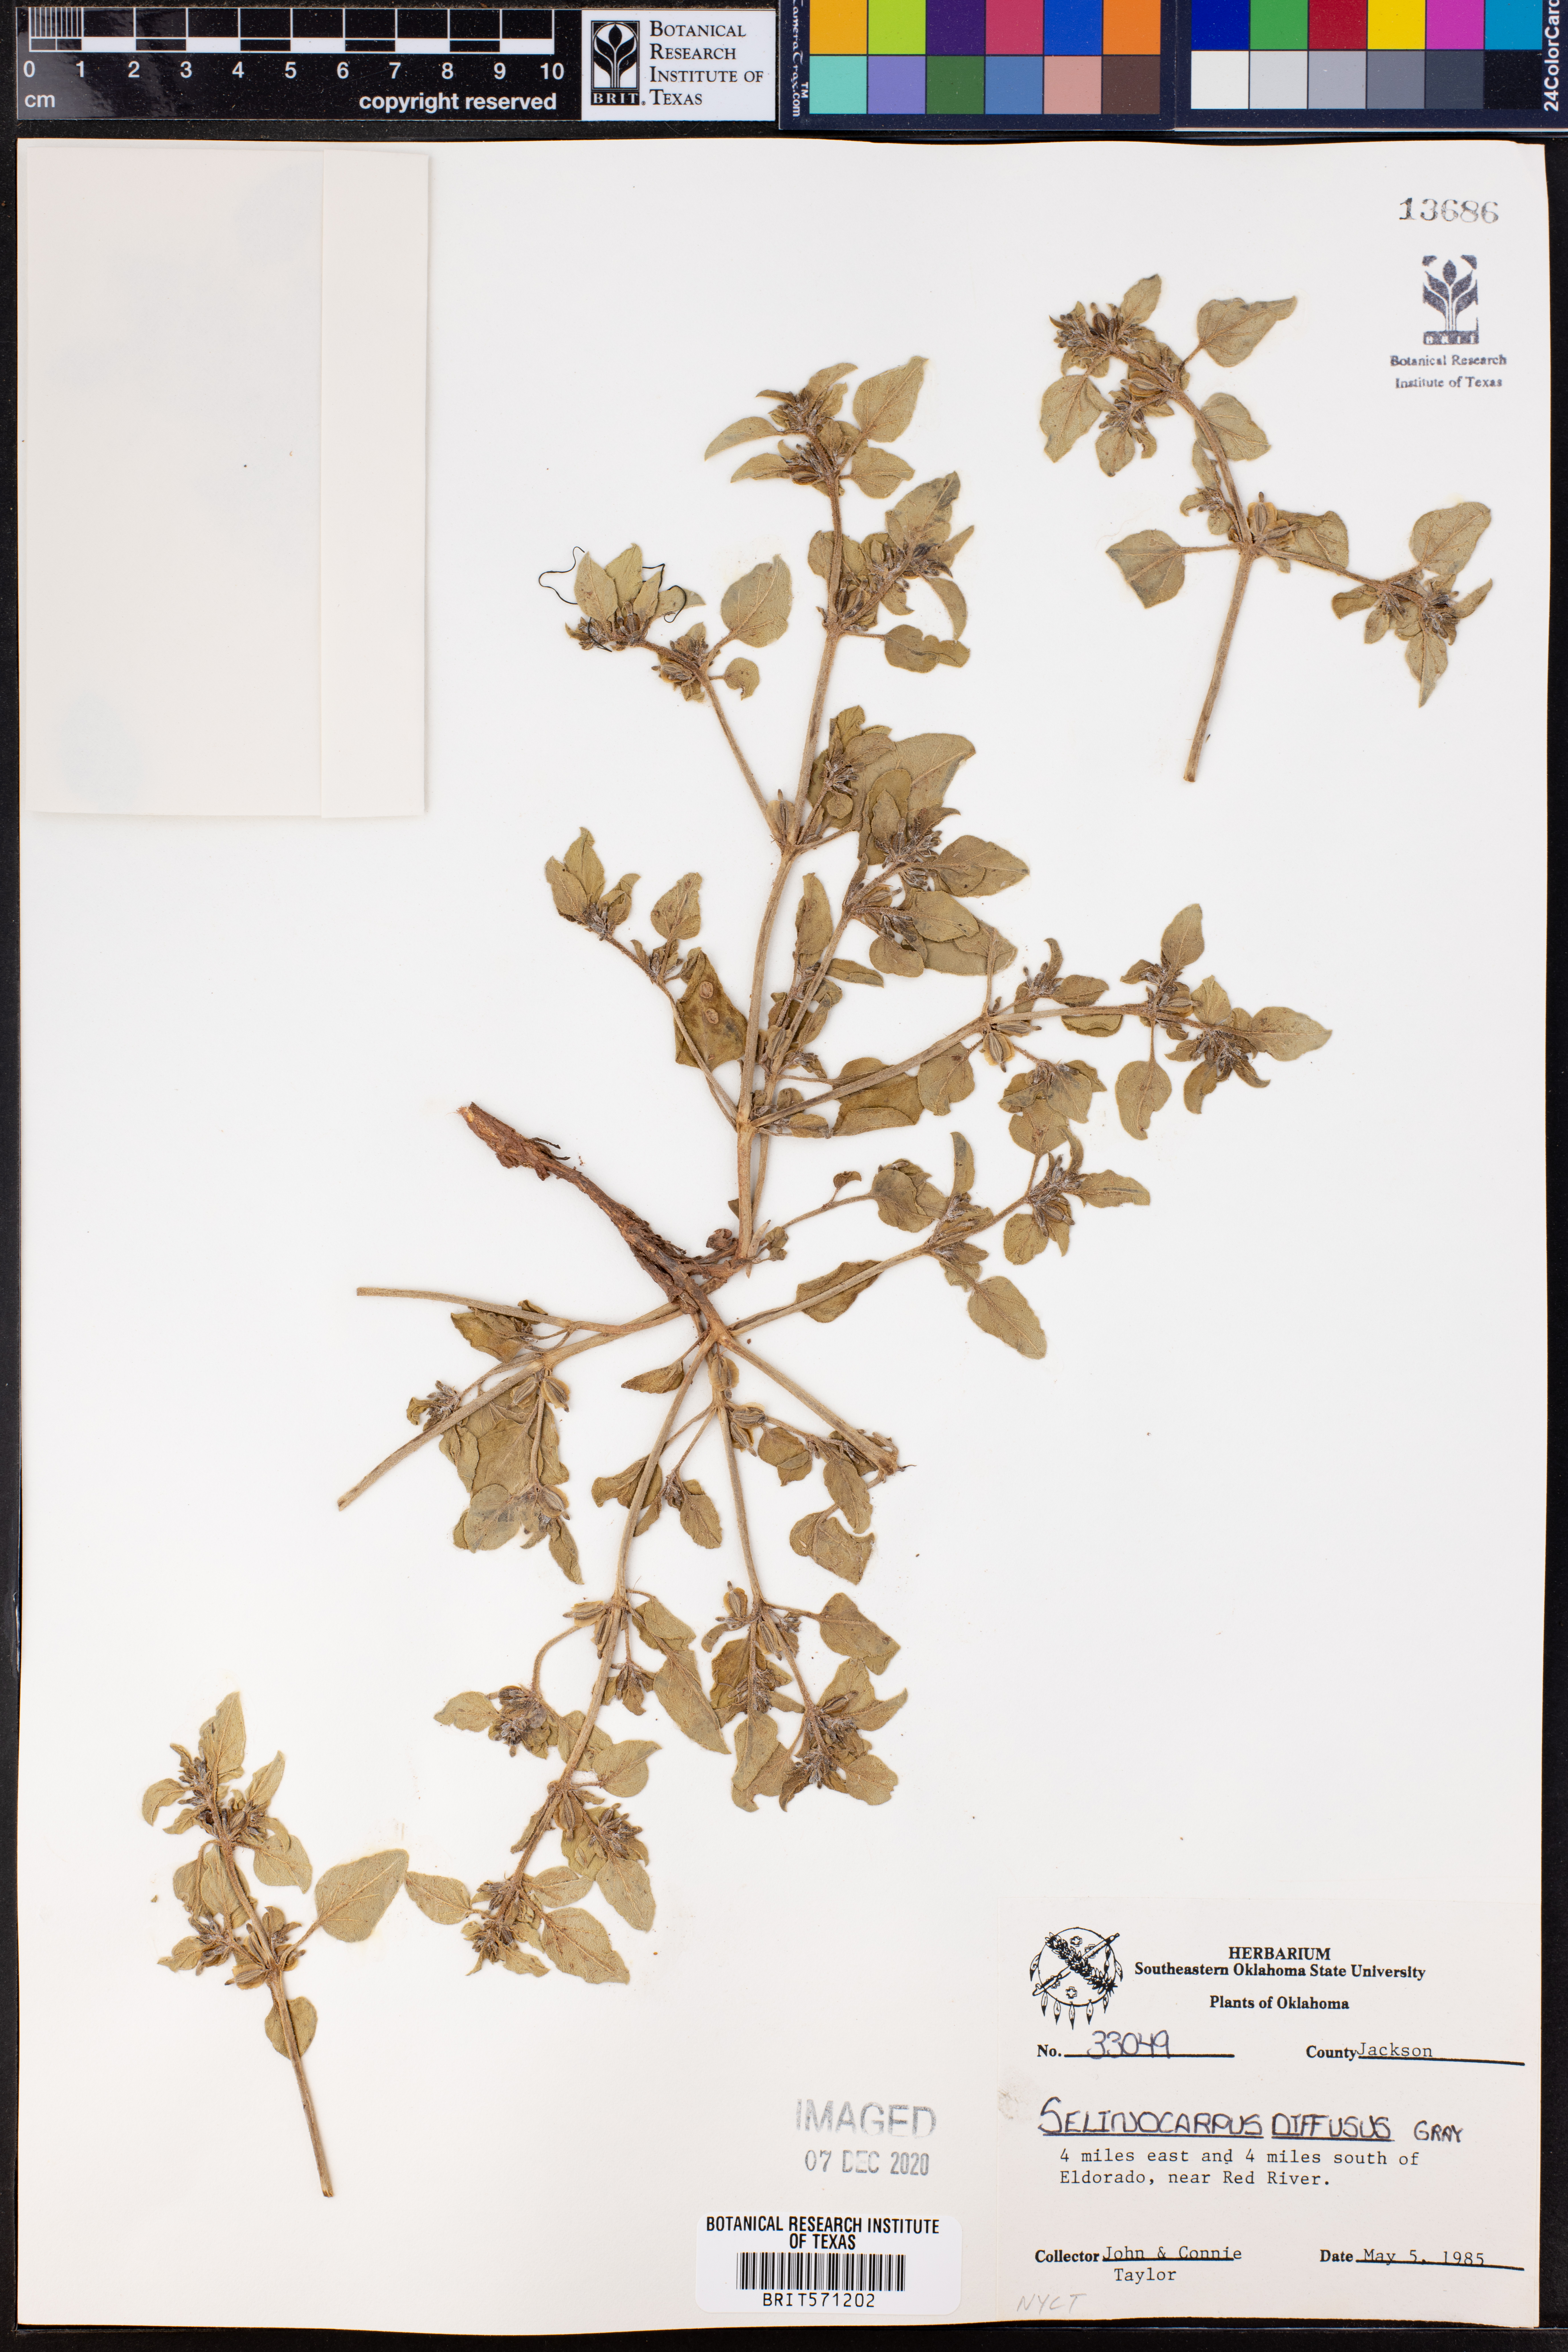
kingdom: Plantae
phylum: Tracheophyta
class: Magnoliopsida
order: Caryophyllales
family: Nyctaginaceae
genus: Acleisanthes
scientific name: Acleisanthes diffusa
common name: Spreading moonpod
